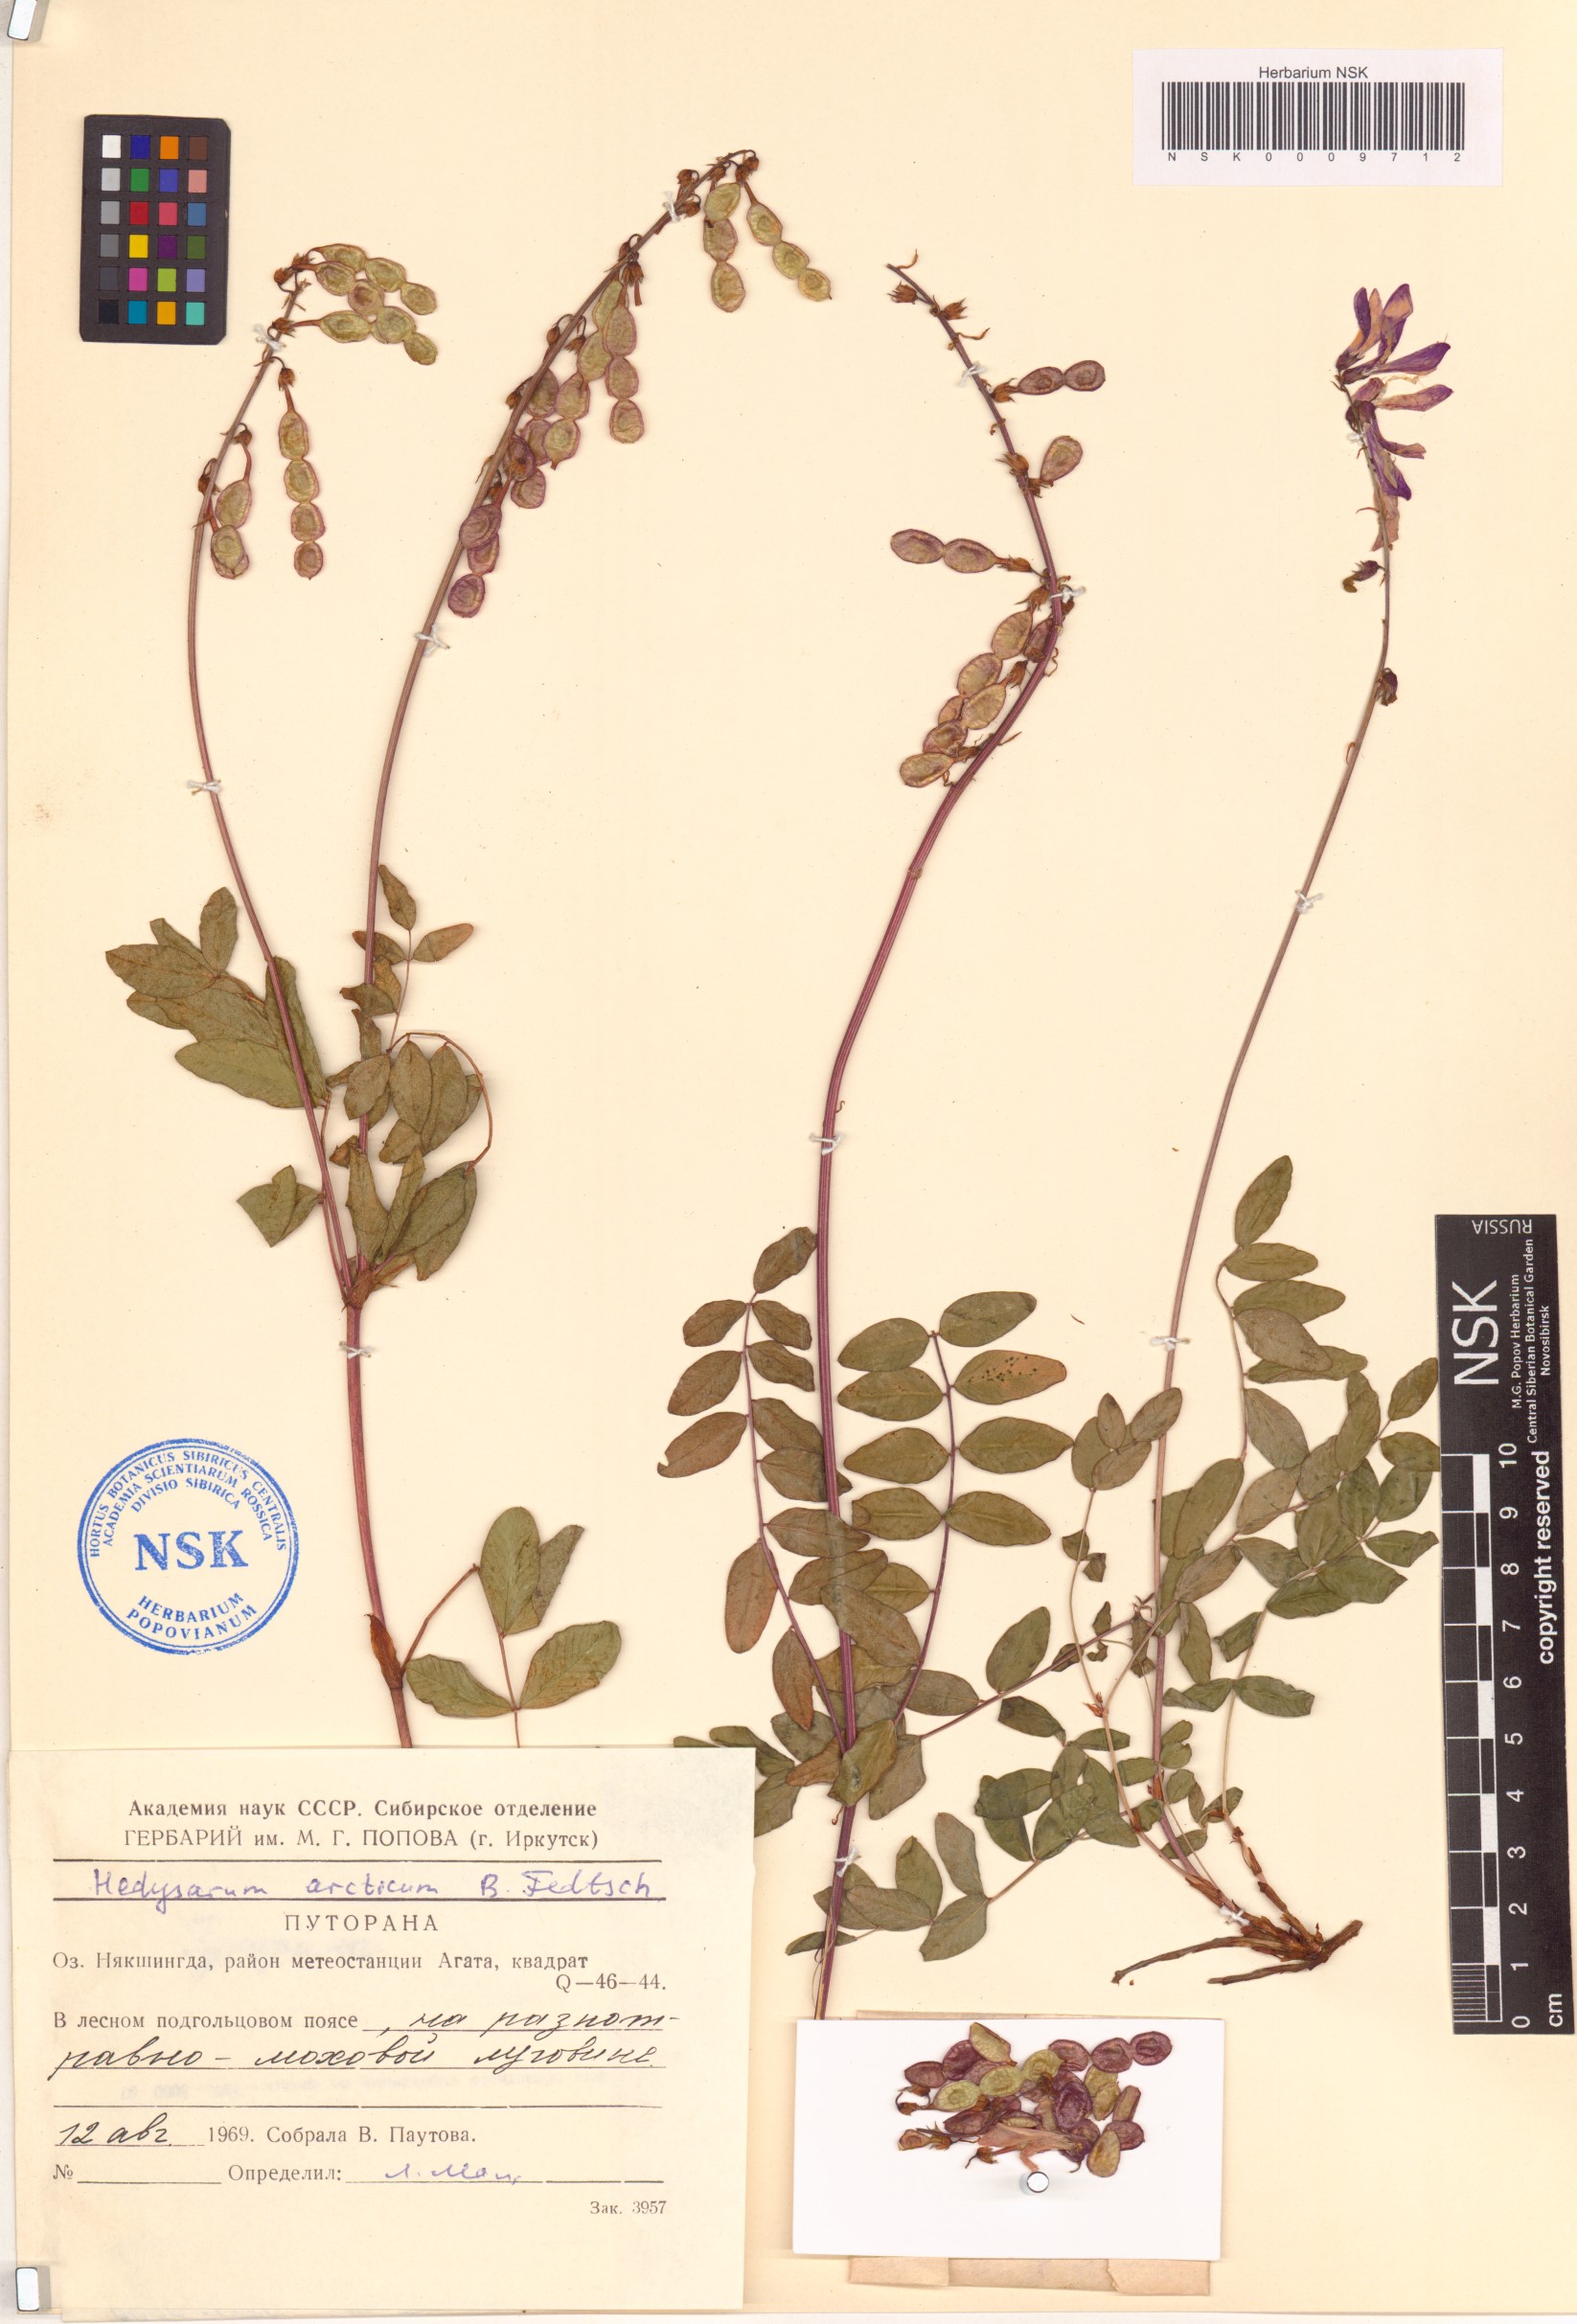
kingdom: Plantae
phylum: Tracheophyta
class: Magnoliopsida
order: Fabales
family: Fabaceae
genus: Hedysarum
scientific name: Hedysarum hedysaroides
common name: Alpine french-honeysuckle
